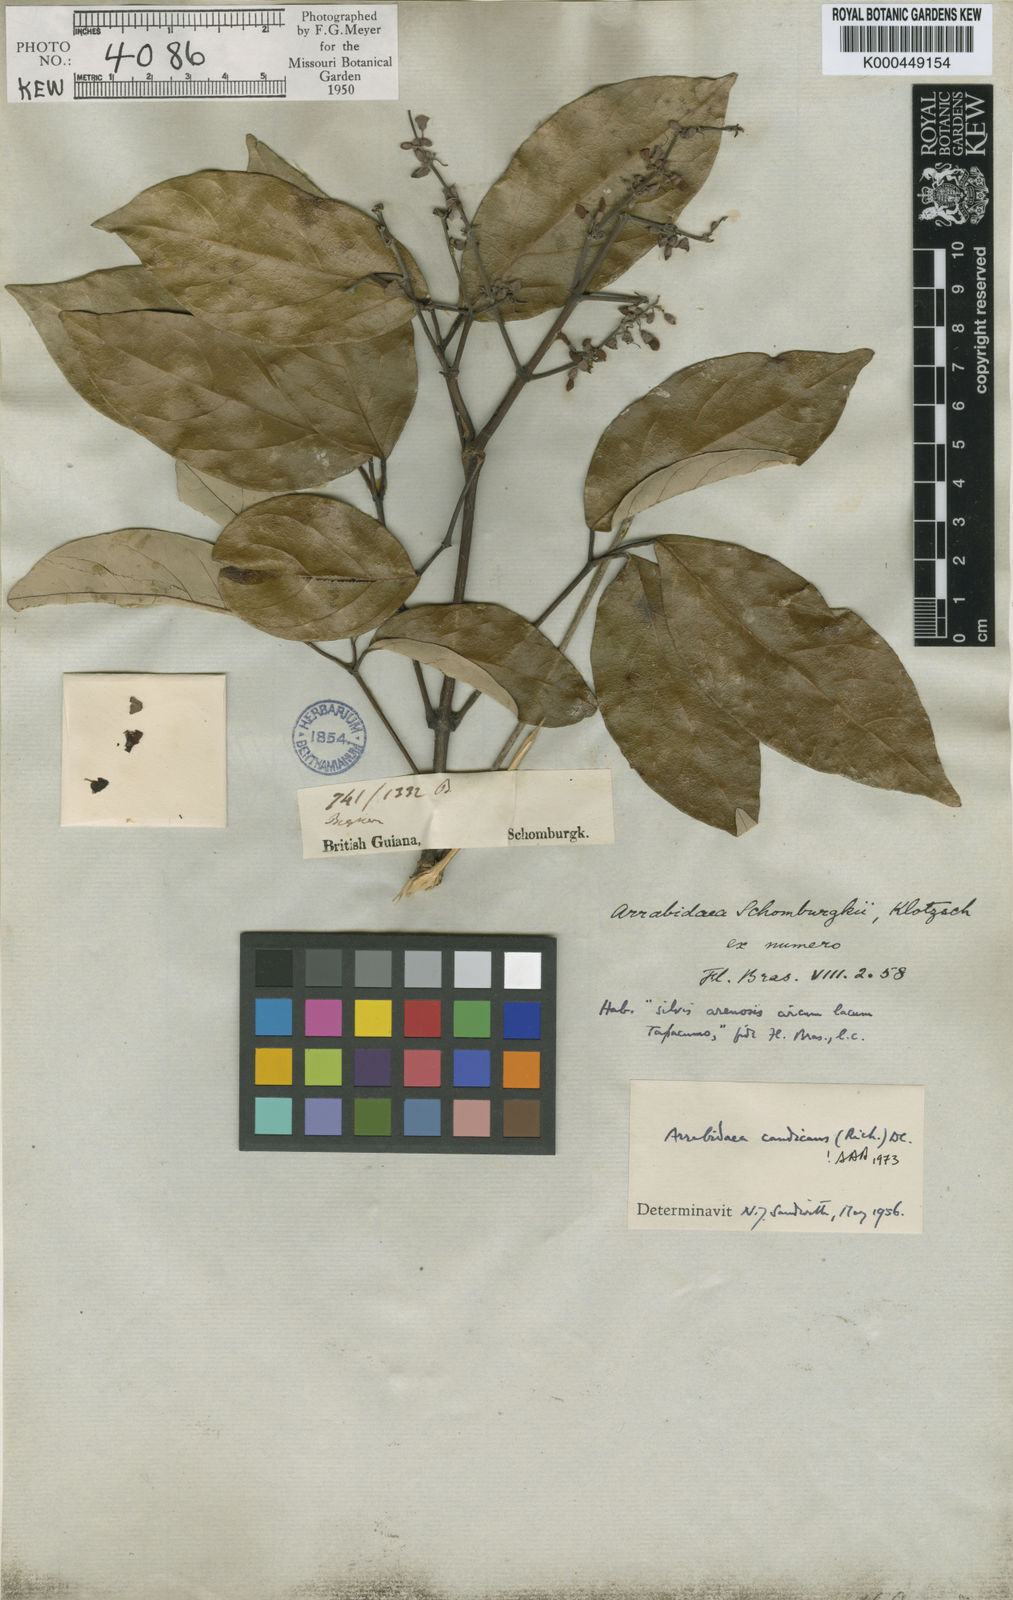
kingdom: Plantae
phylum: Tracheophyta
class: Magnoliopsida
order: Lamiales
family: Bignoniaceae
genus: Fridericia
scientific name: Fridericia candicans
